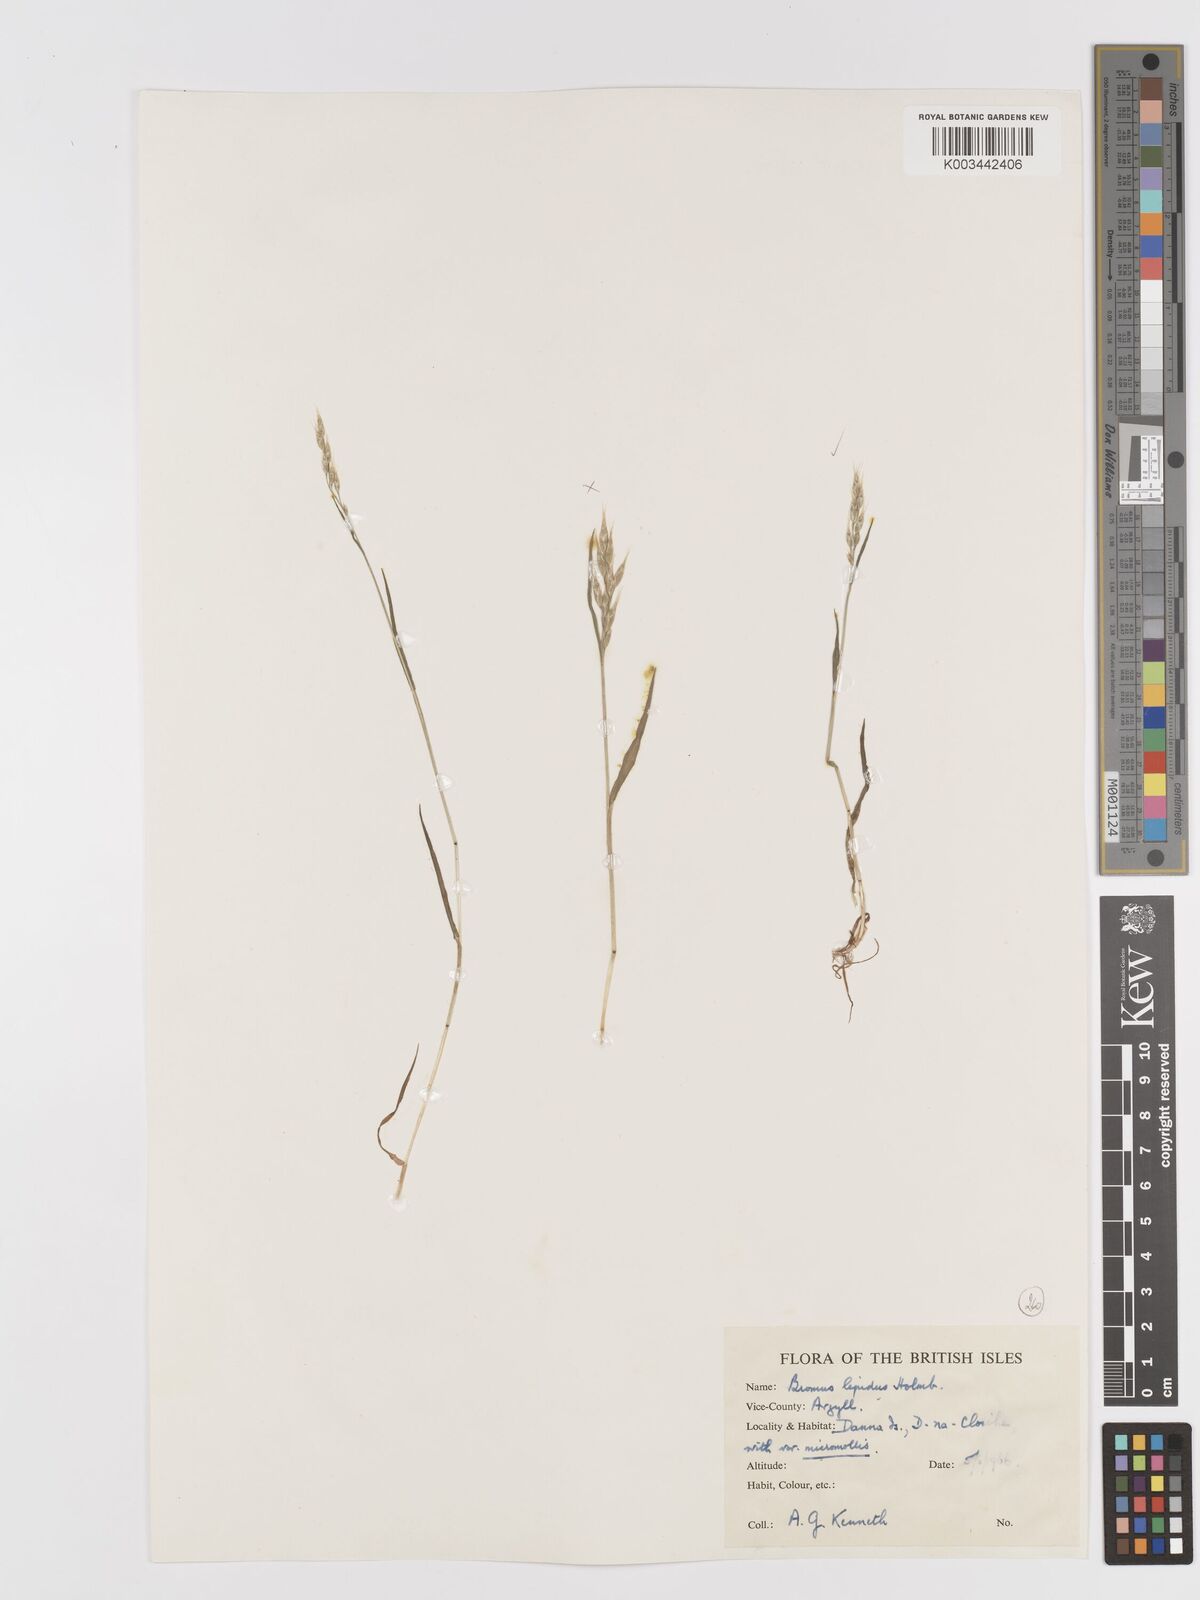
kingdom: Plantae
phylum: Tracheophyta
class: Liliopsida
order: Poales
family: Poaceae
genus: Bromus
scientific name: Bromus lepidus
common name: Slender soft-brome
